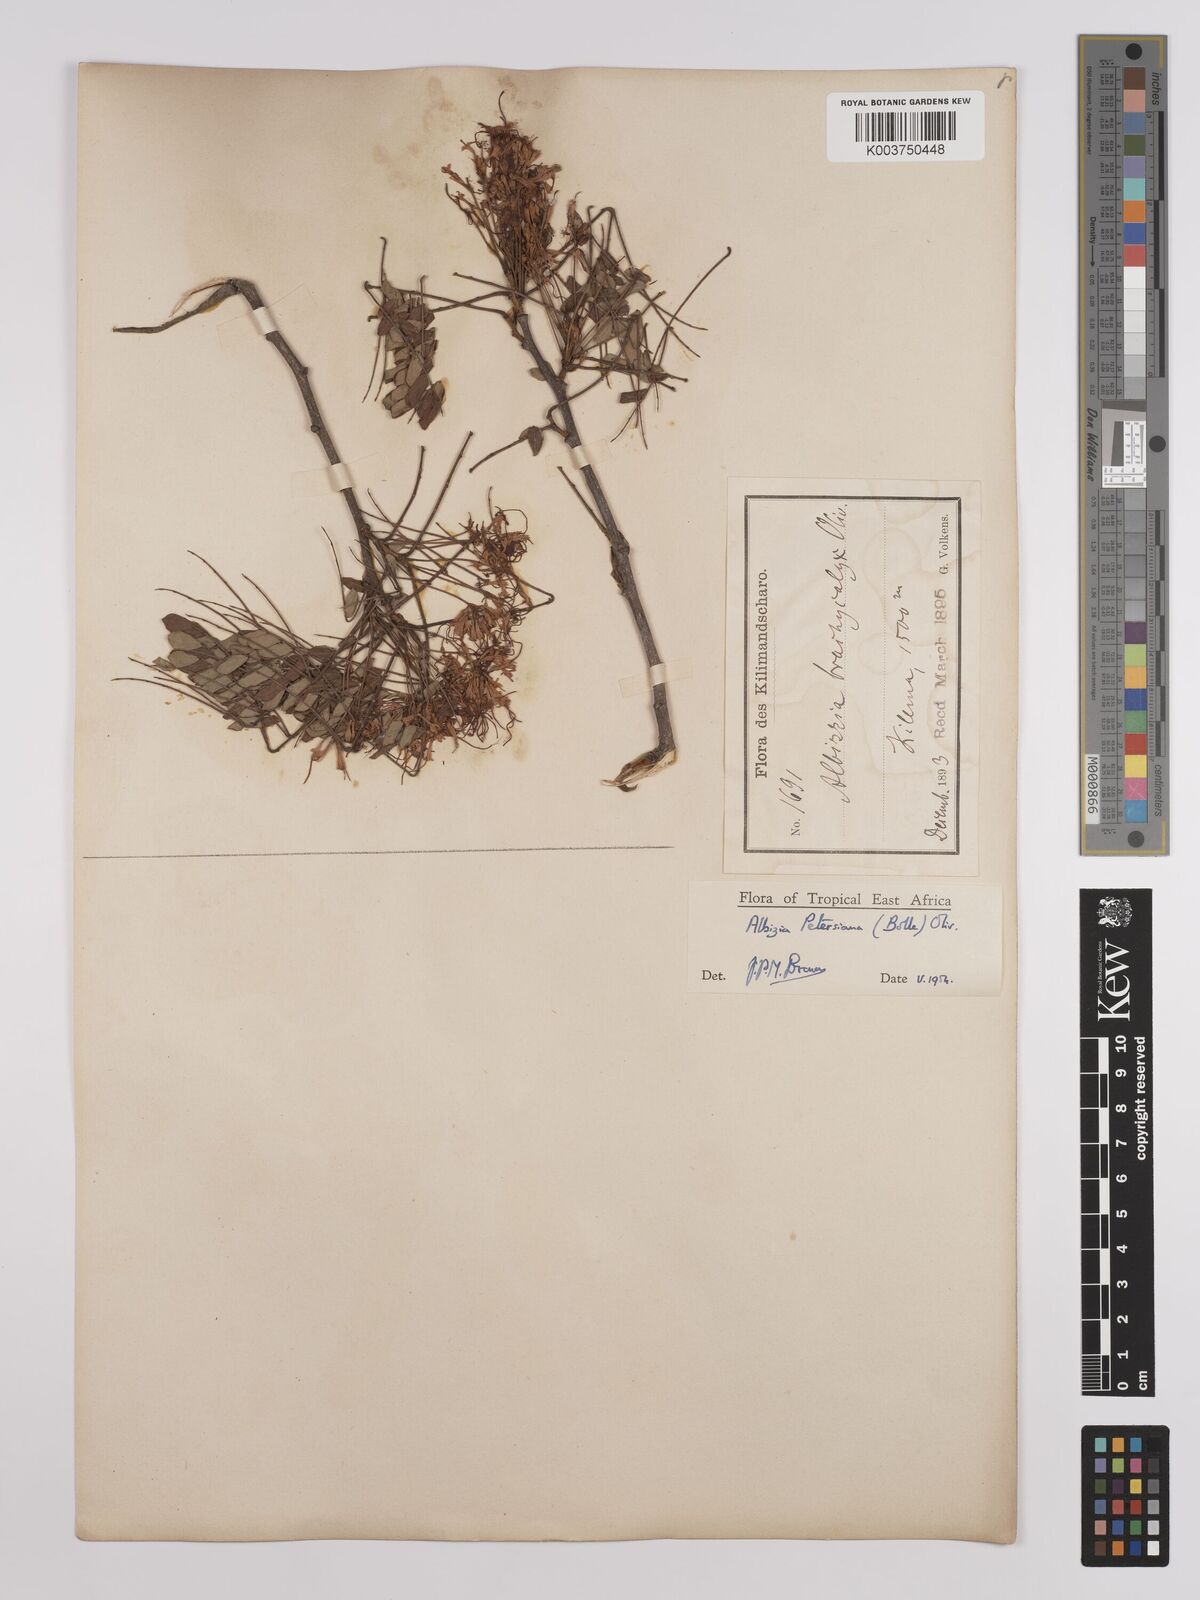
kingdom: Plantae
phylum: Tracheophyta
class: Magnoliopsida
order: Fabales
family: Fabaceae
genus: Albizia
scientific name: Albizia petersiana
